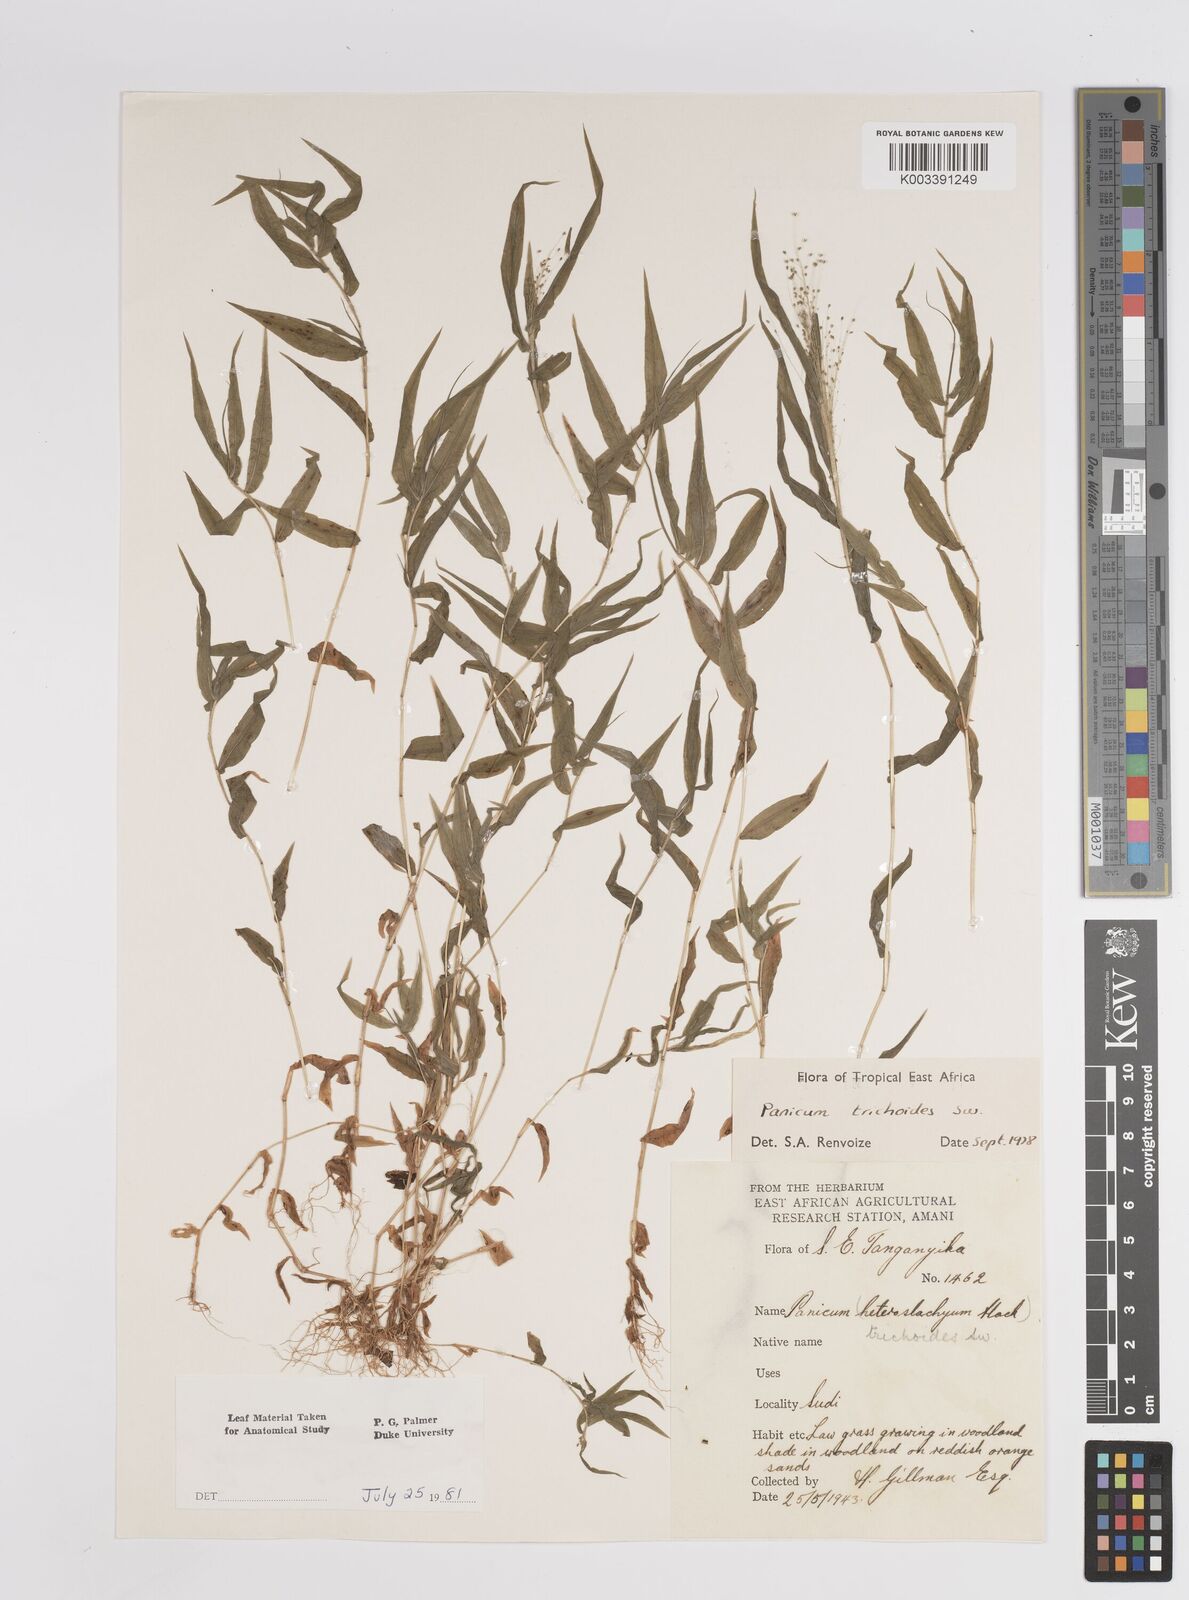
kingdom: Plantae
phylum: Tracheophyta
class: Liliopsida
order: Poales
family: Poaceae
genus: Panicum
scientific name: Panicum trichoides
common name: Tickle grass
